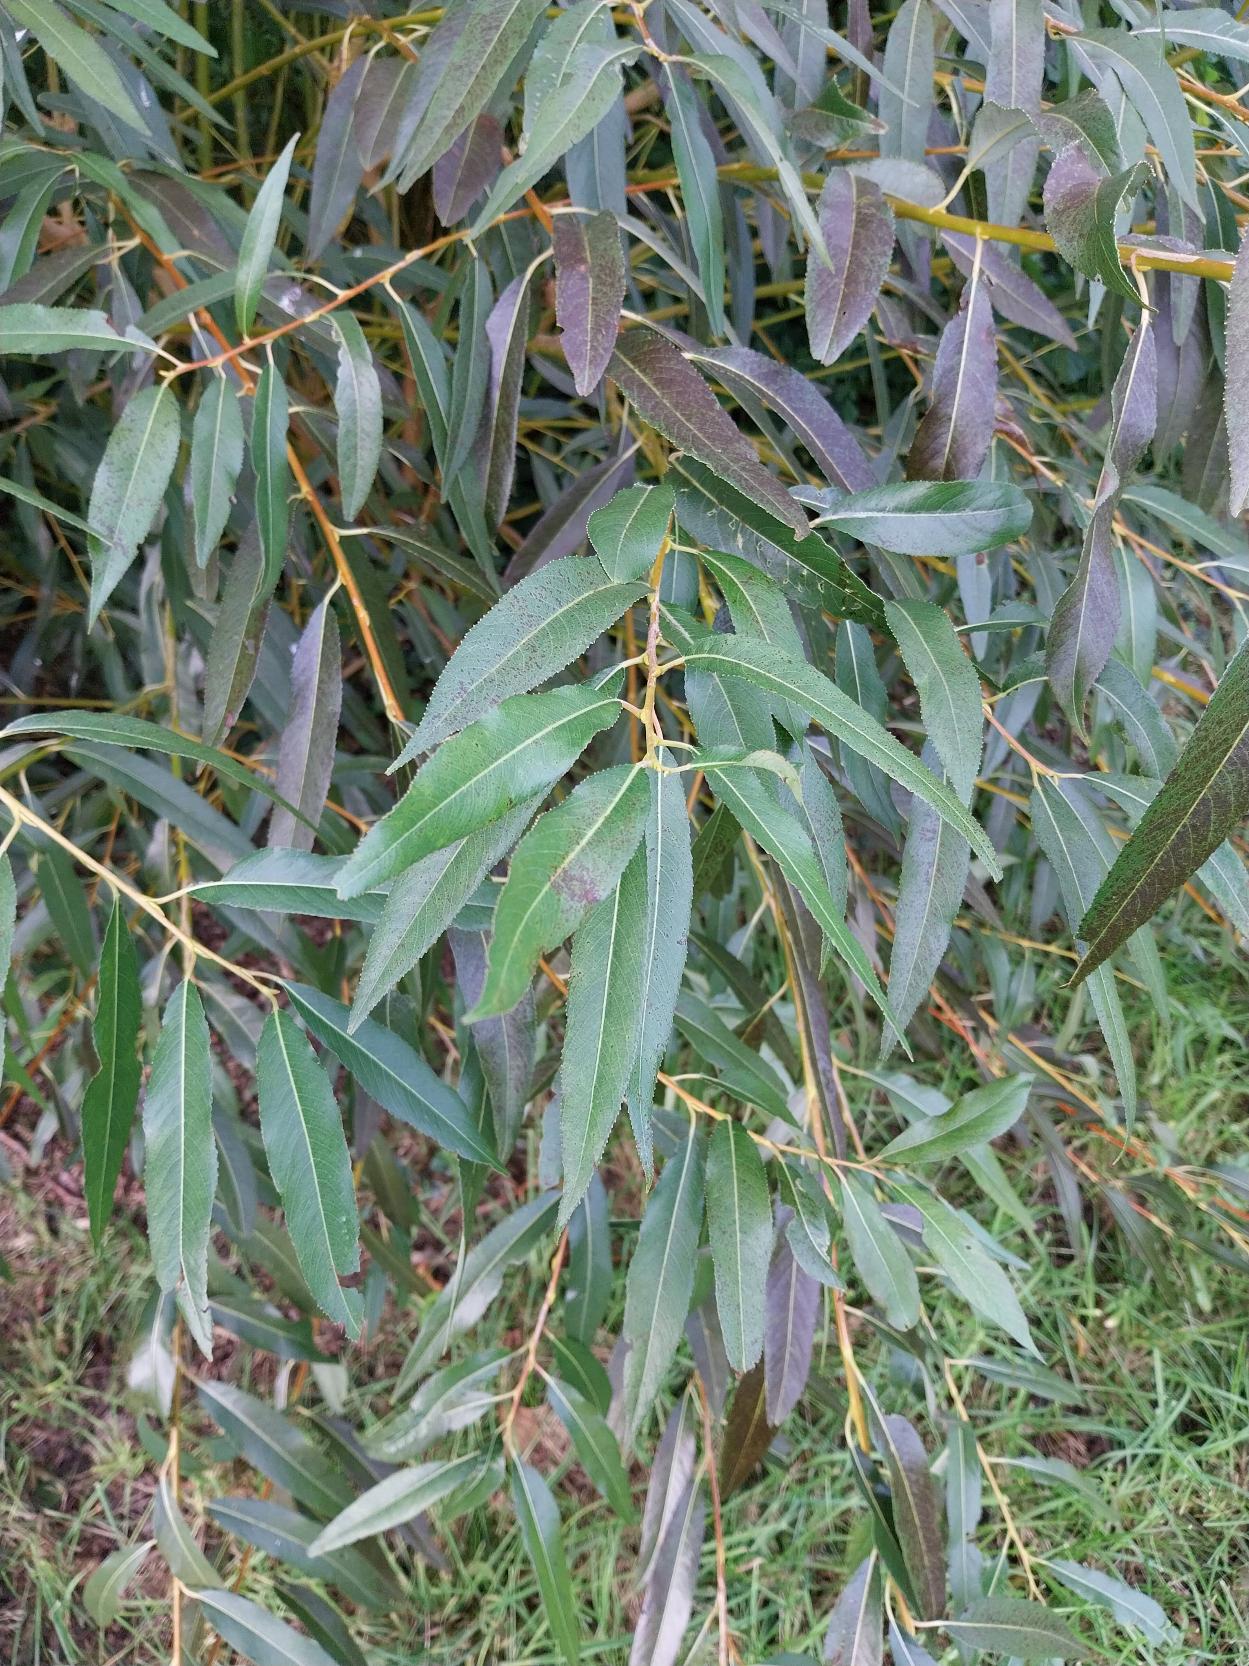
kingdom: Plantae
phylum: Tracheophyta
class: Magnoliopsida
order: Malpighiales
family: Salicaceae
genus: Salix
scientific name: Salix fragilis
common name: Grøn pil
